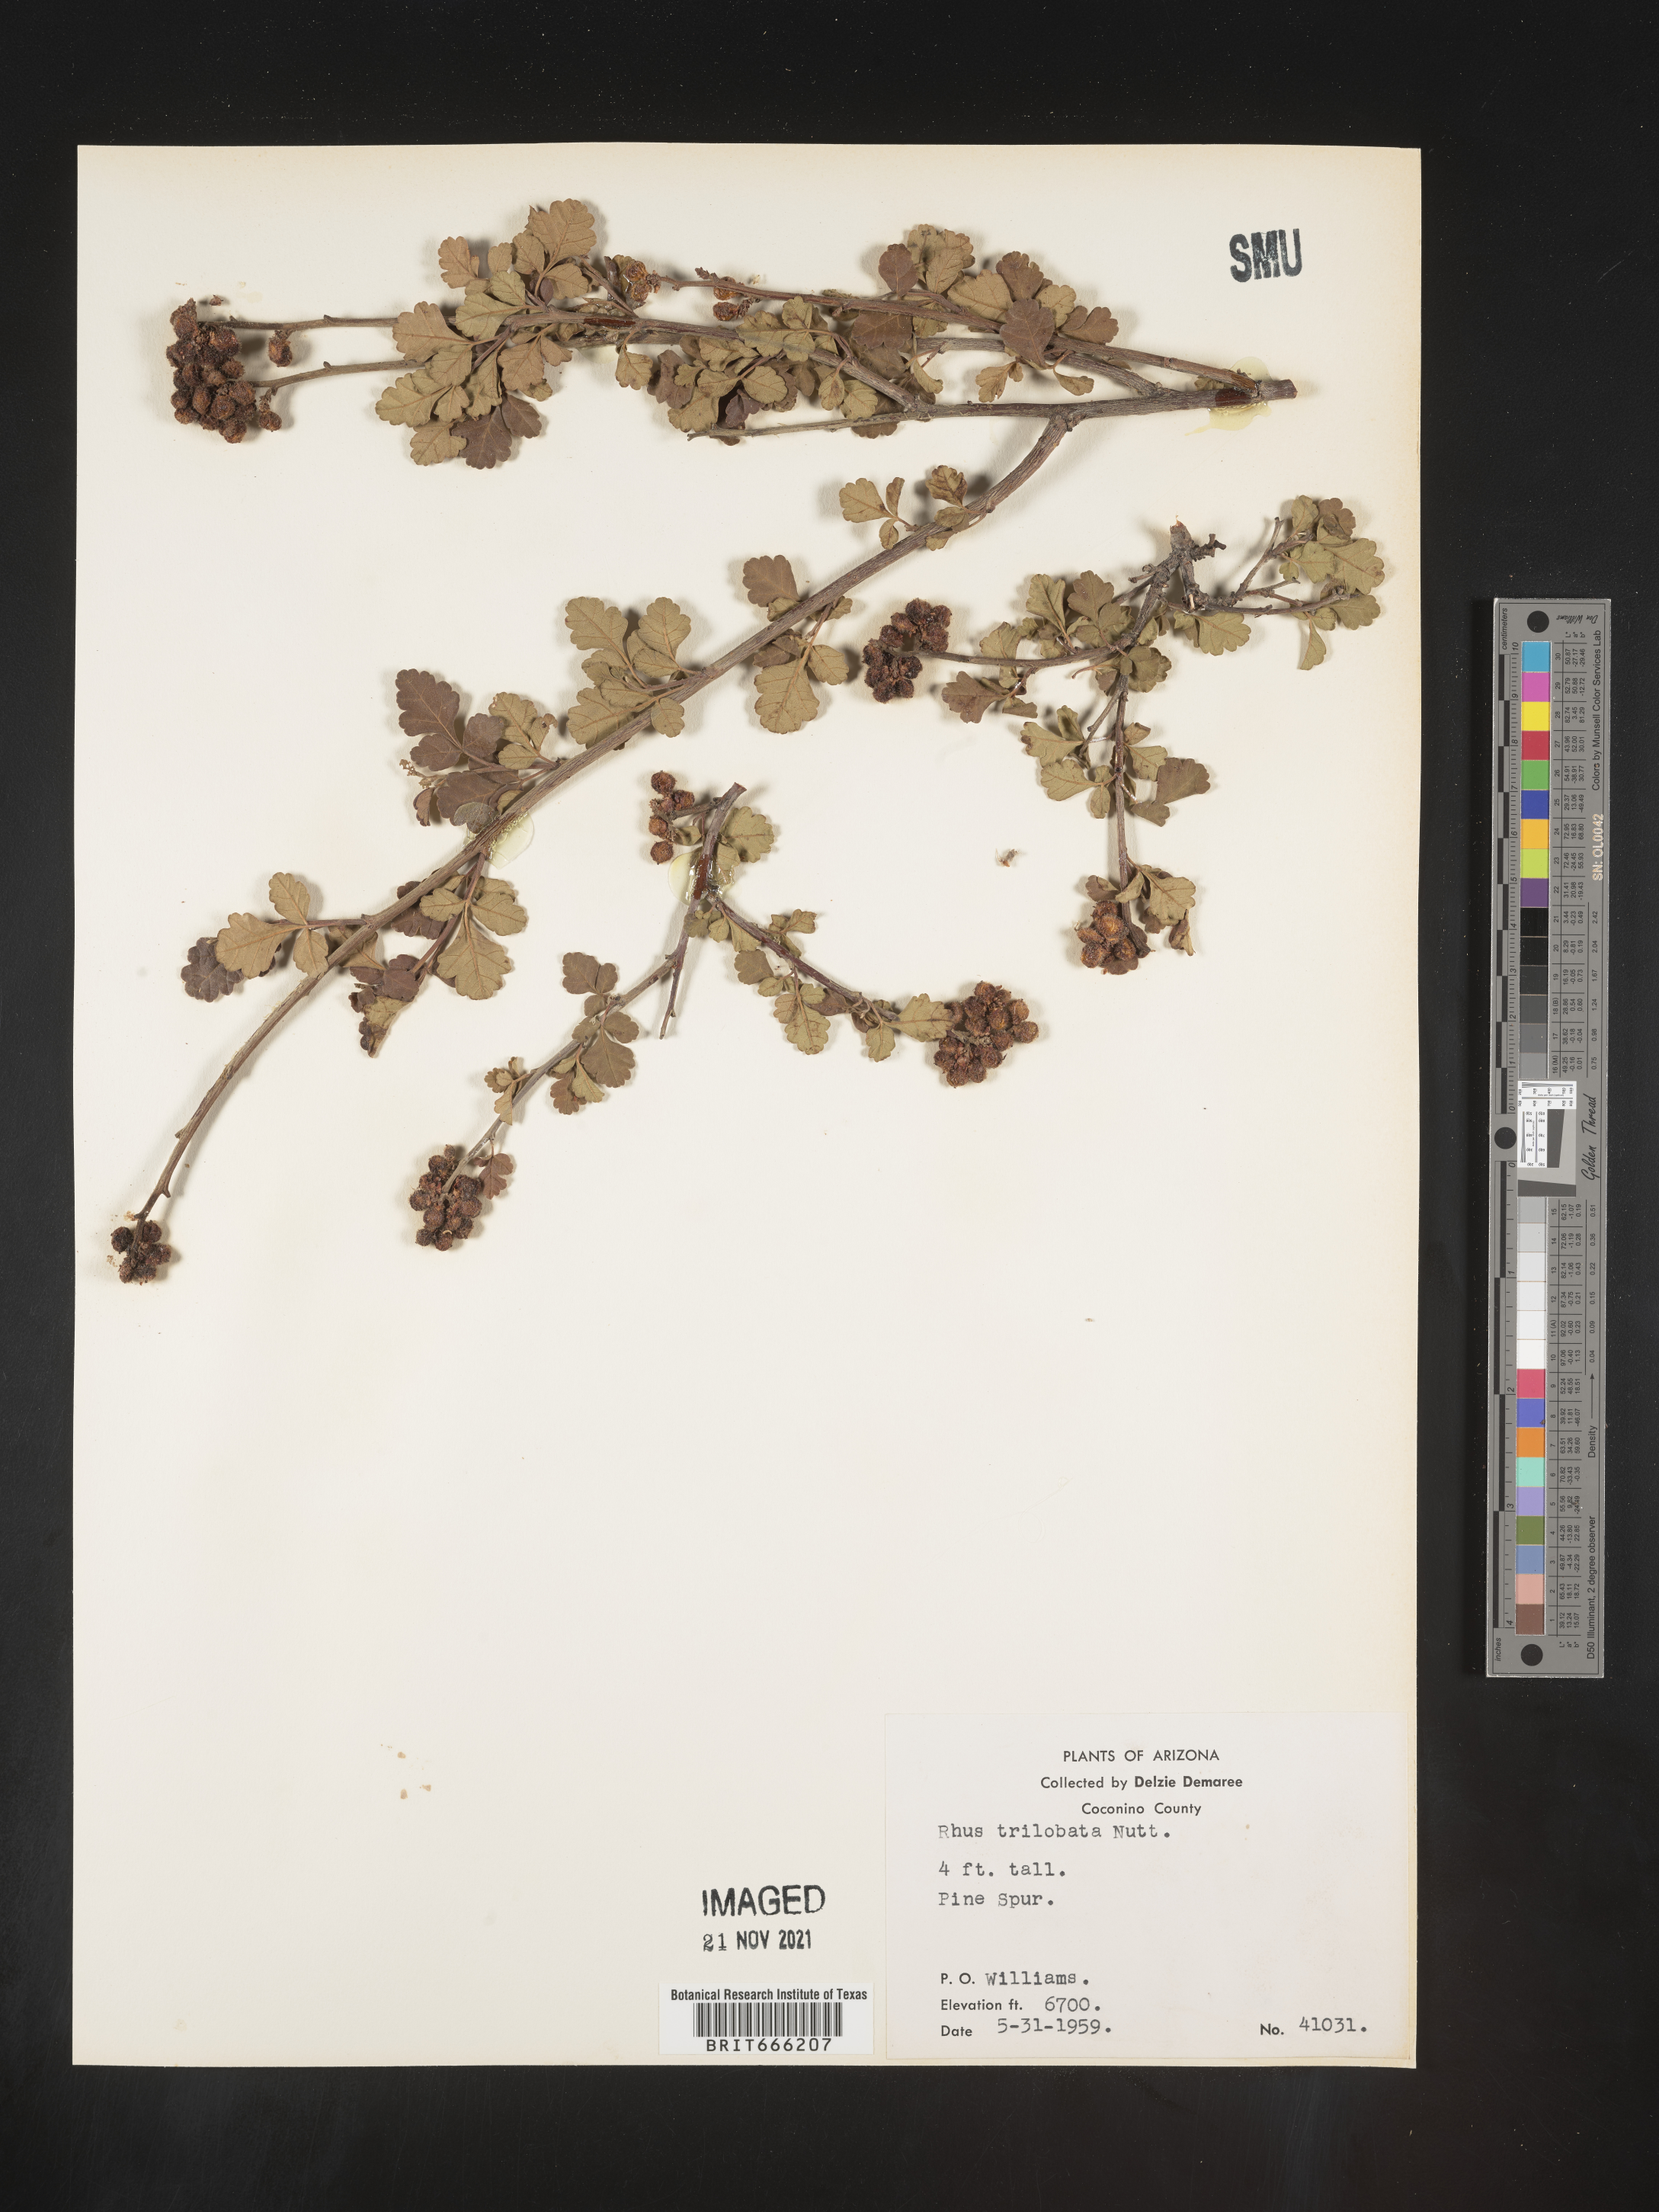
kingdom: Plantae
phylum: Tracheophyta
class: Magnoliopsida
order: Sapindales
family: Anacardiaceae
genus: Rhus
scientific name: Rhus trilobata
